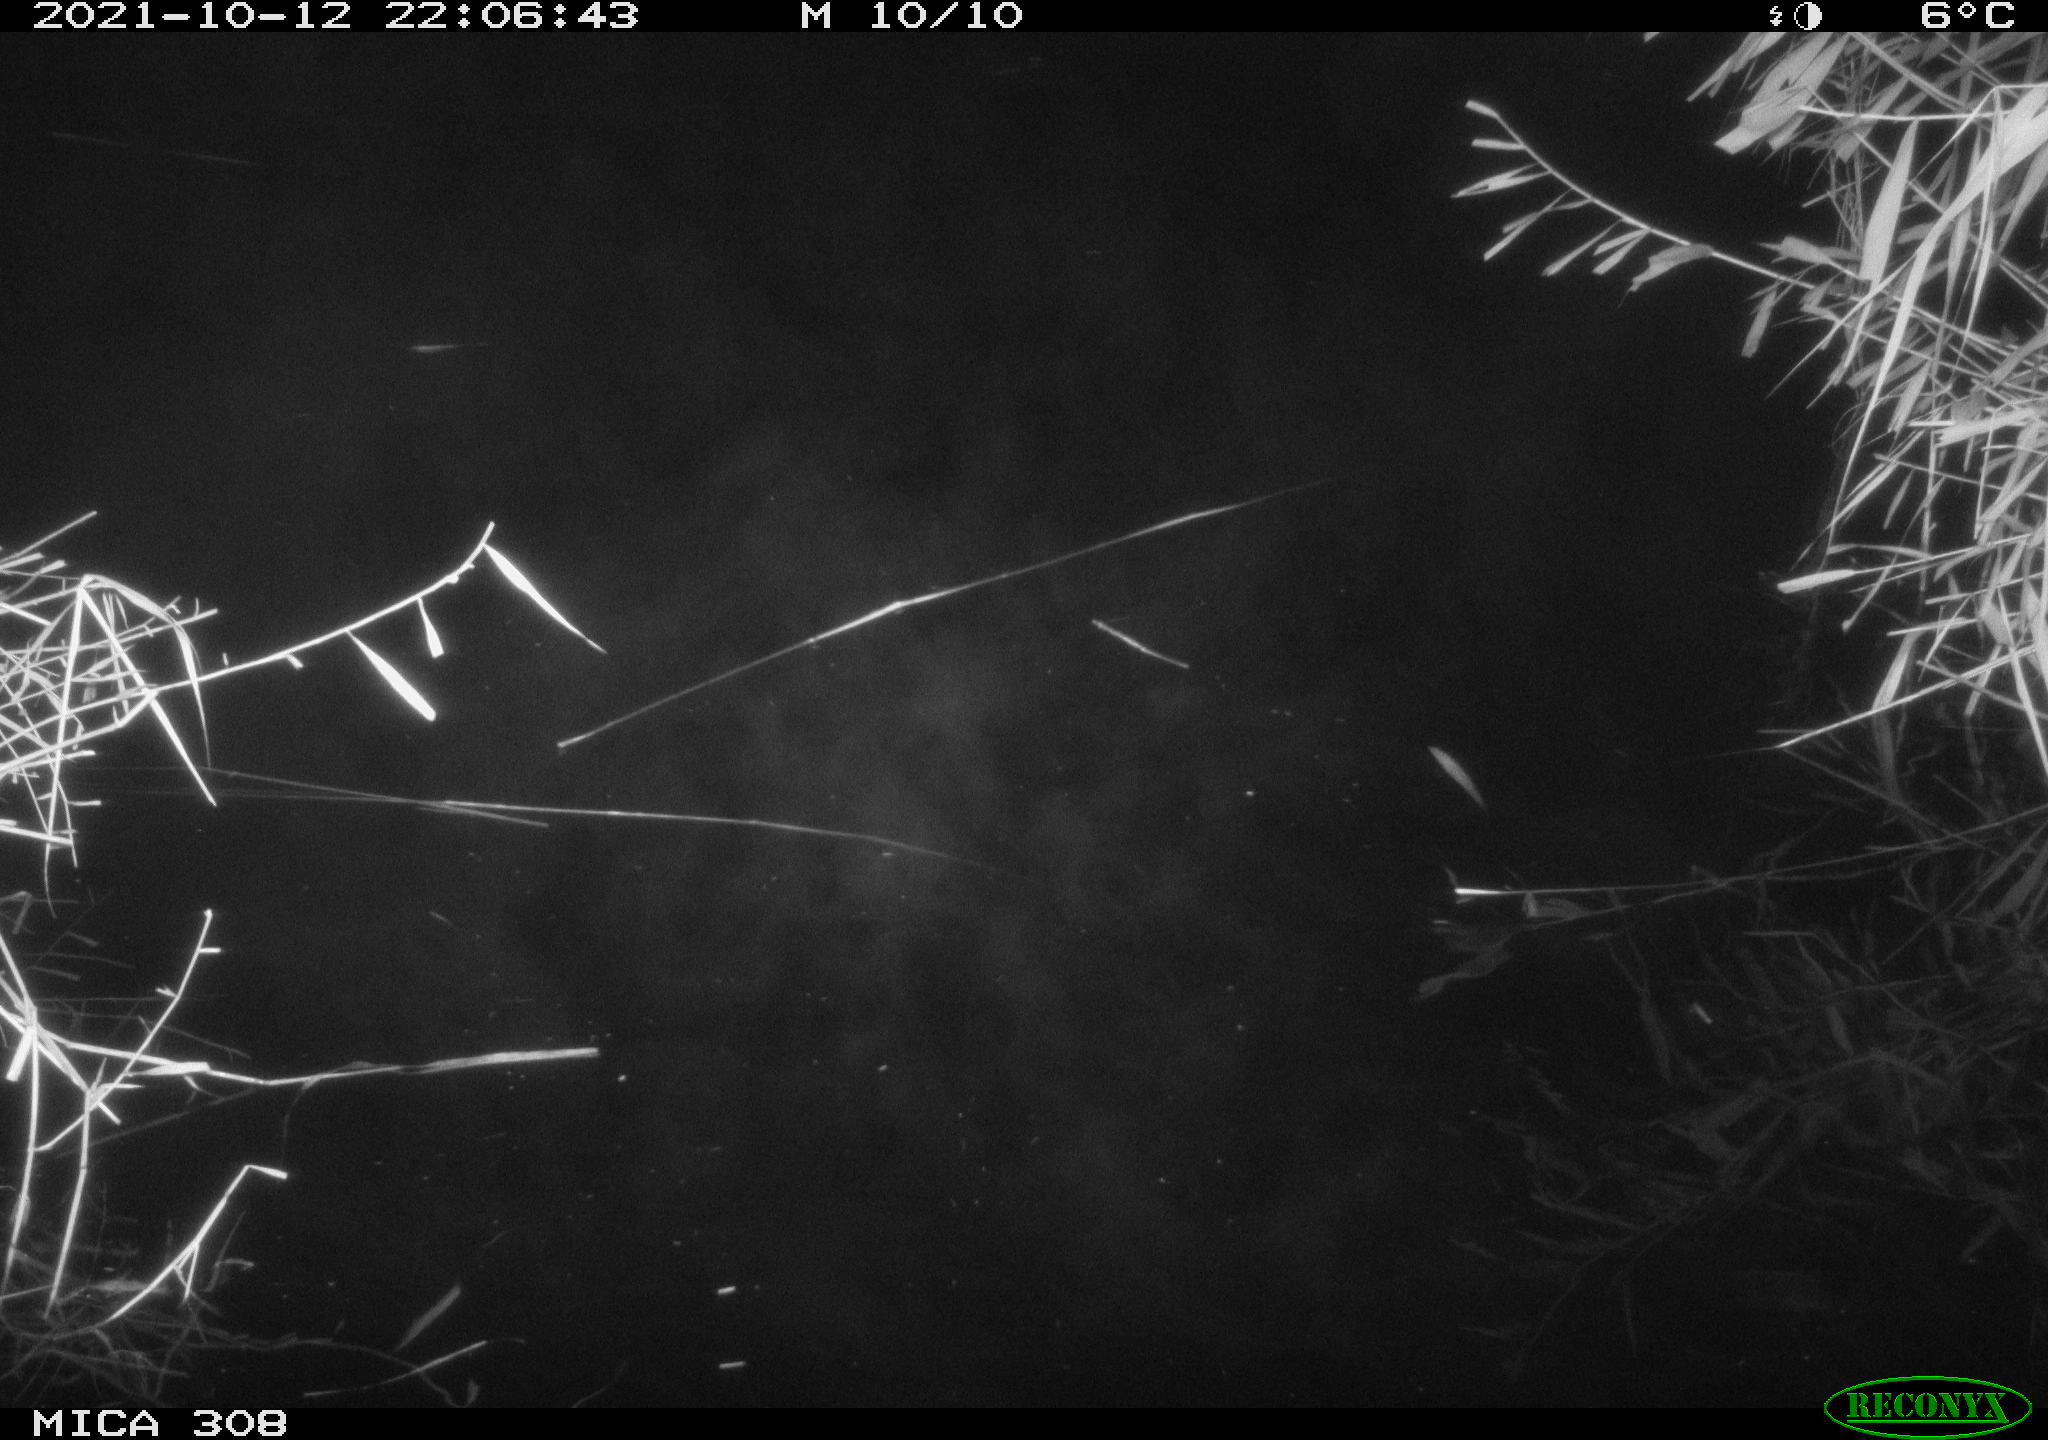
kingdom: Animalia
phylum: Chordata
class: Mammalia
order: Rodentia
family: Cricetidae
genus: Ondatra
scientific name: Ondatra zibethicus
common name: Muskrat
